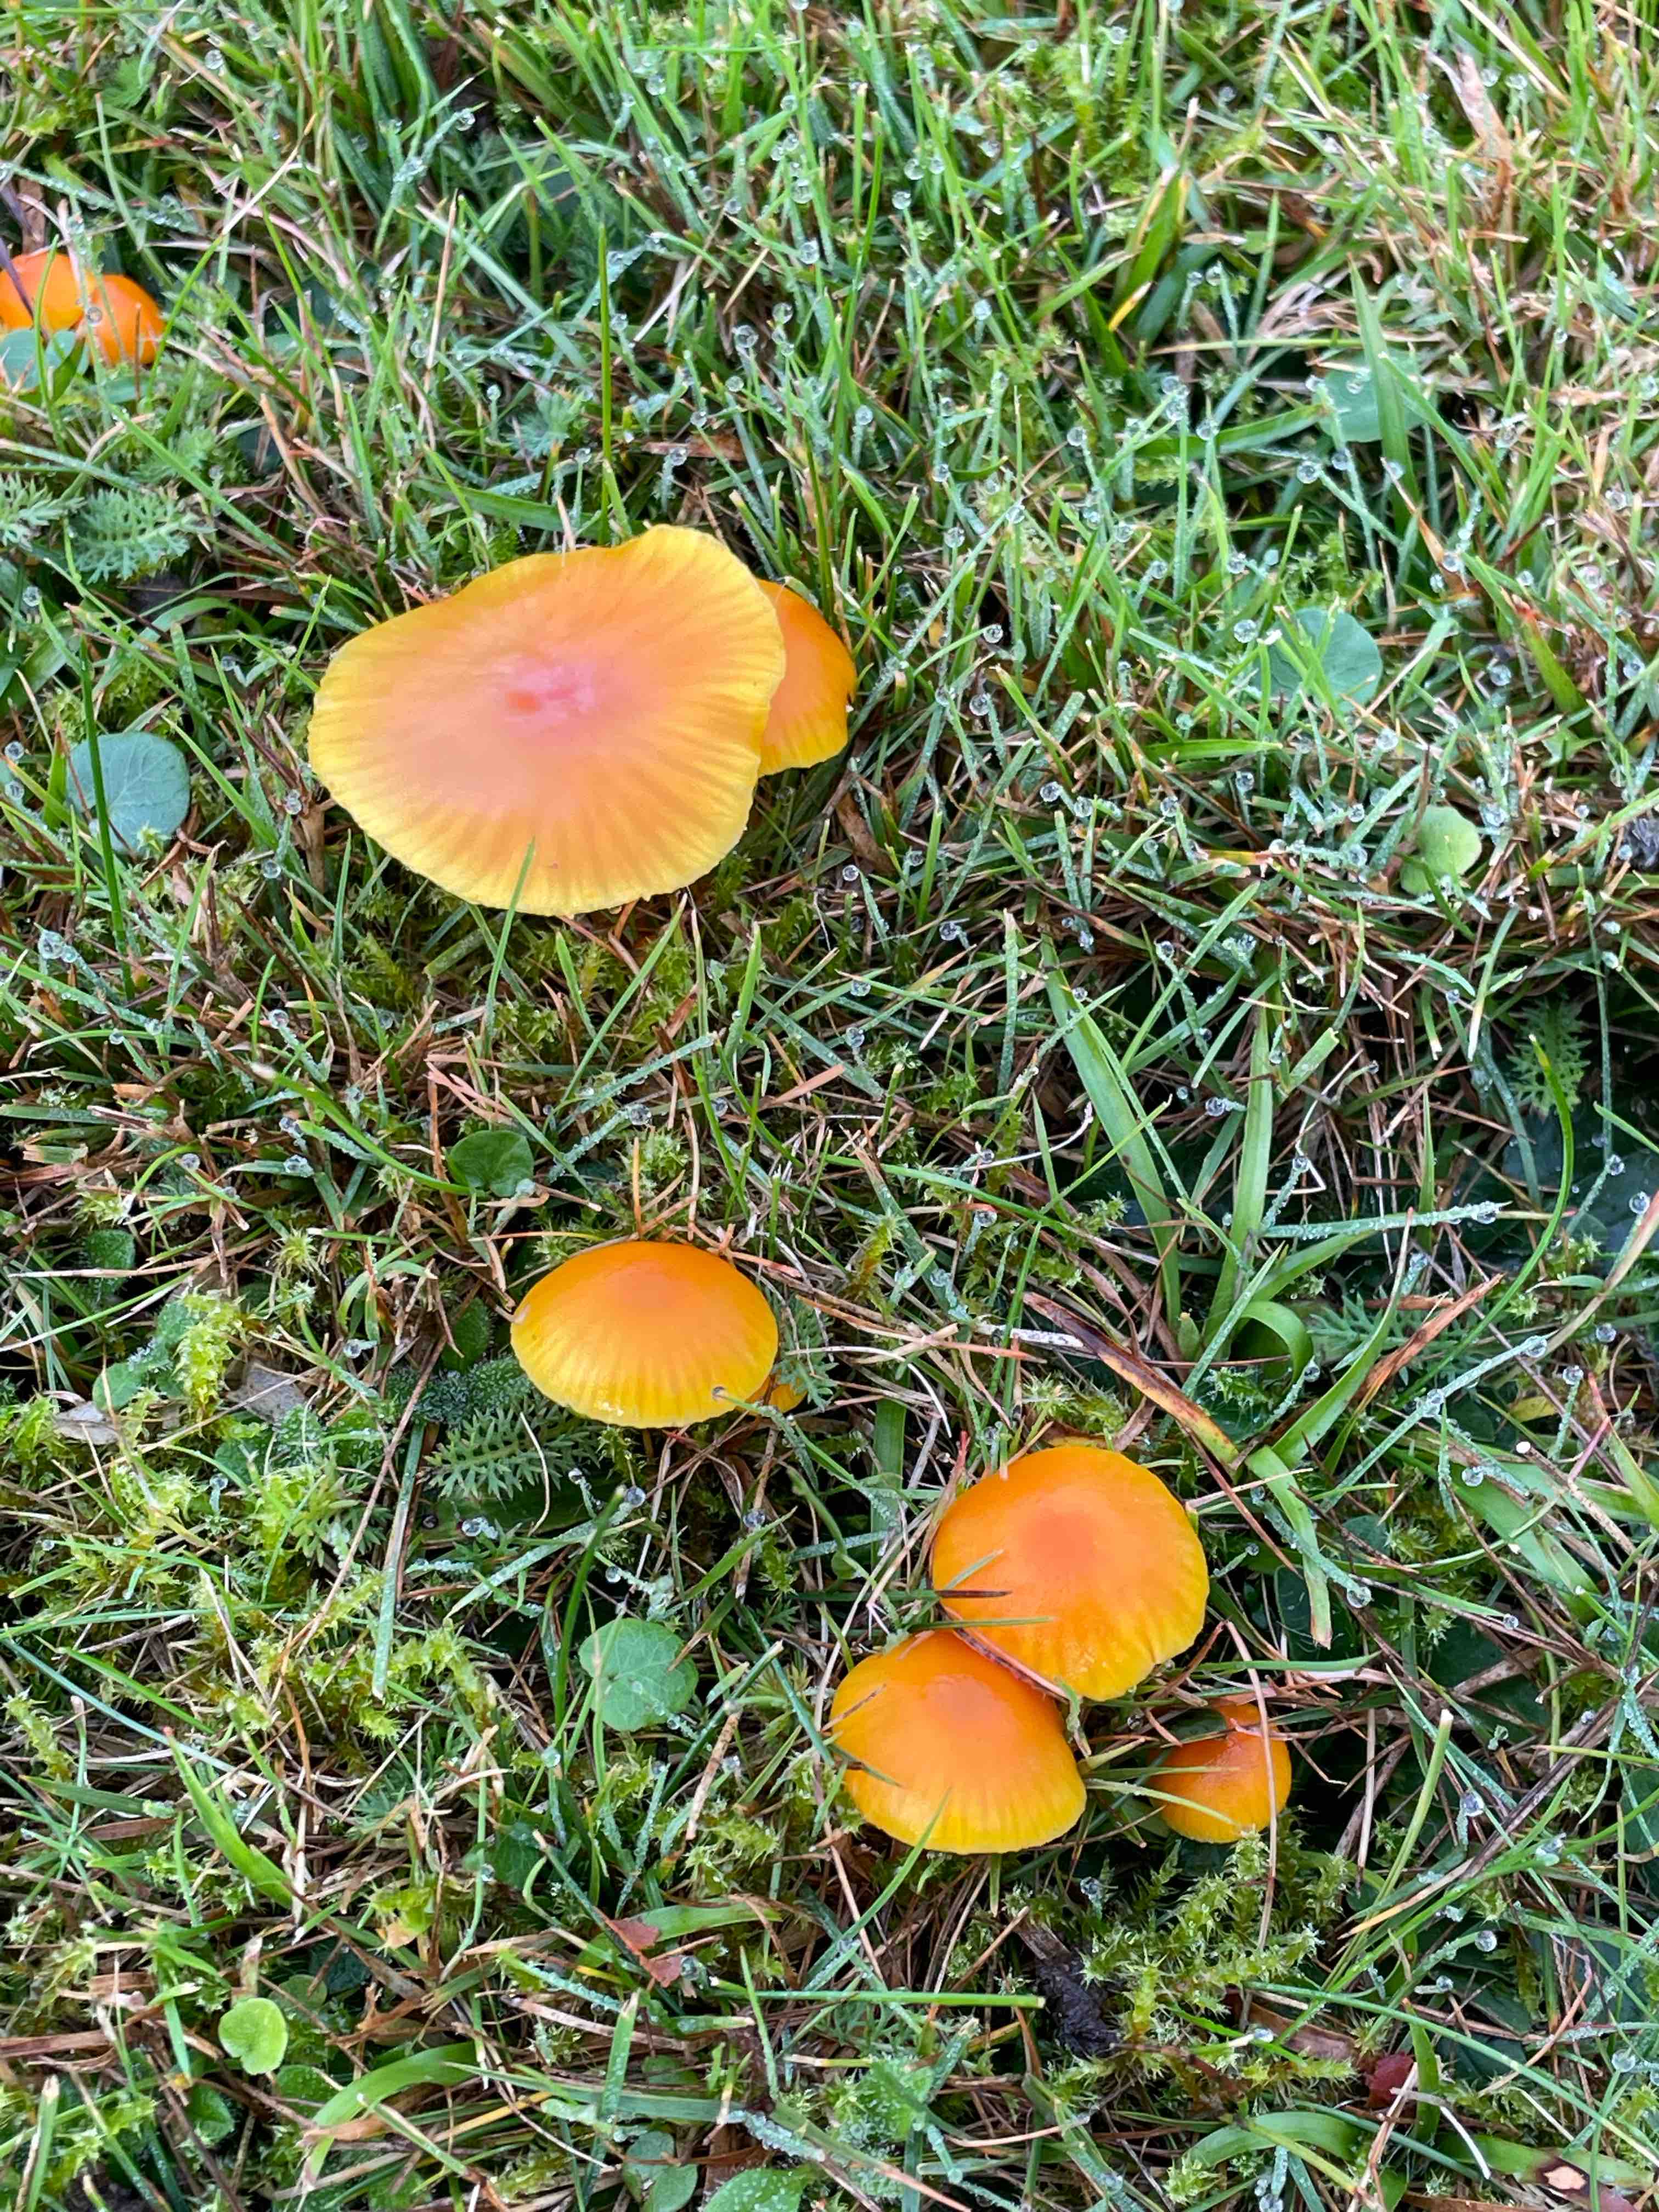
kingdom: Fungi
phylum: Basidiomycota
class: Agaricomycetes
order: Agaricales
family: Hygrophoraceae
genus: Hygrocybe
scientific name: Hygrocybe ceracea
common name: voksgul vokshat
